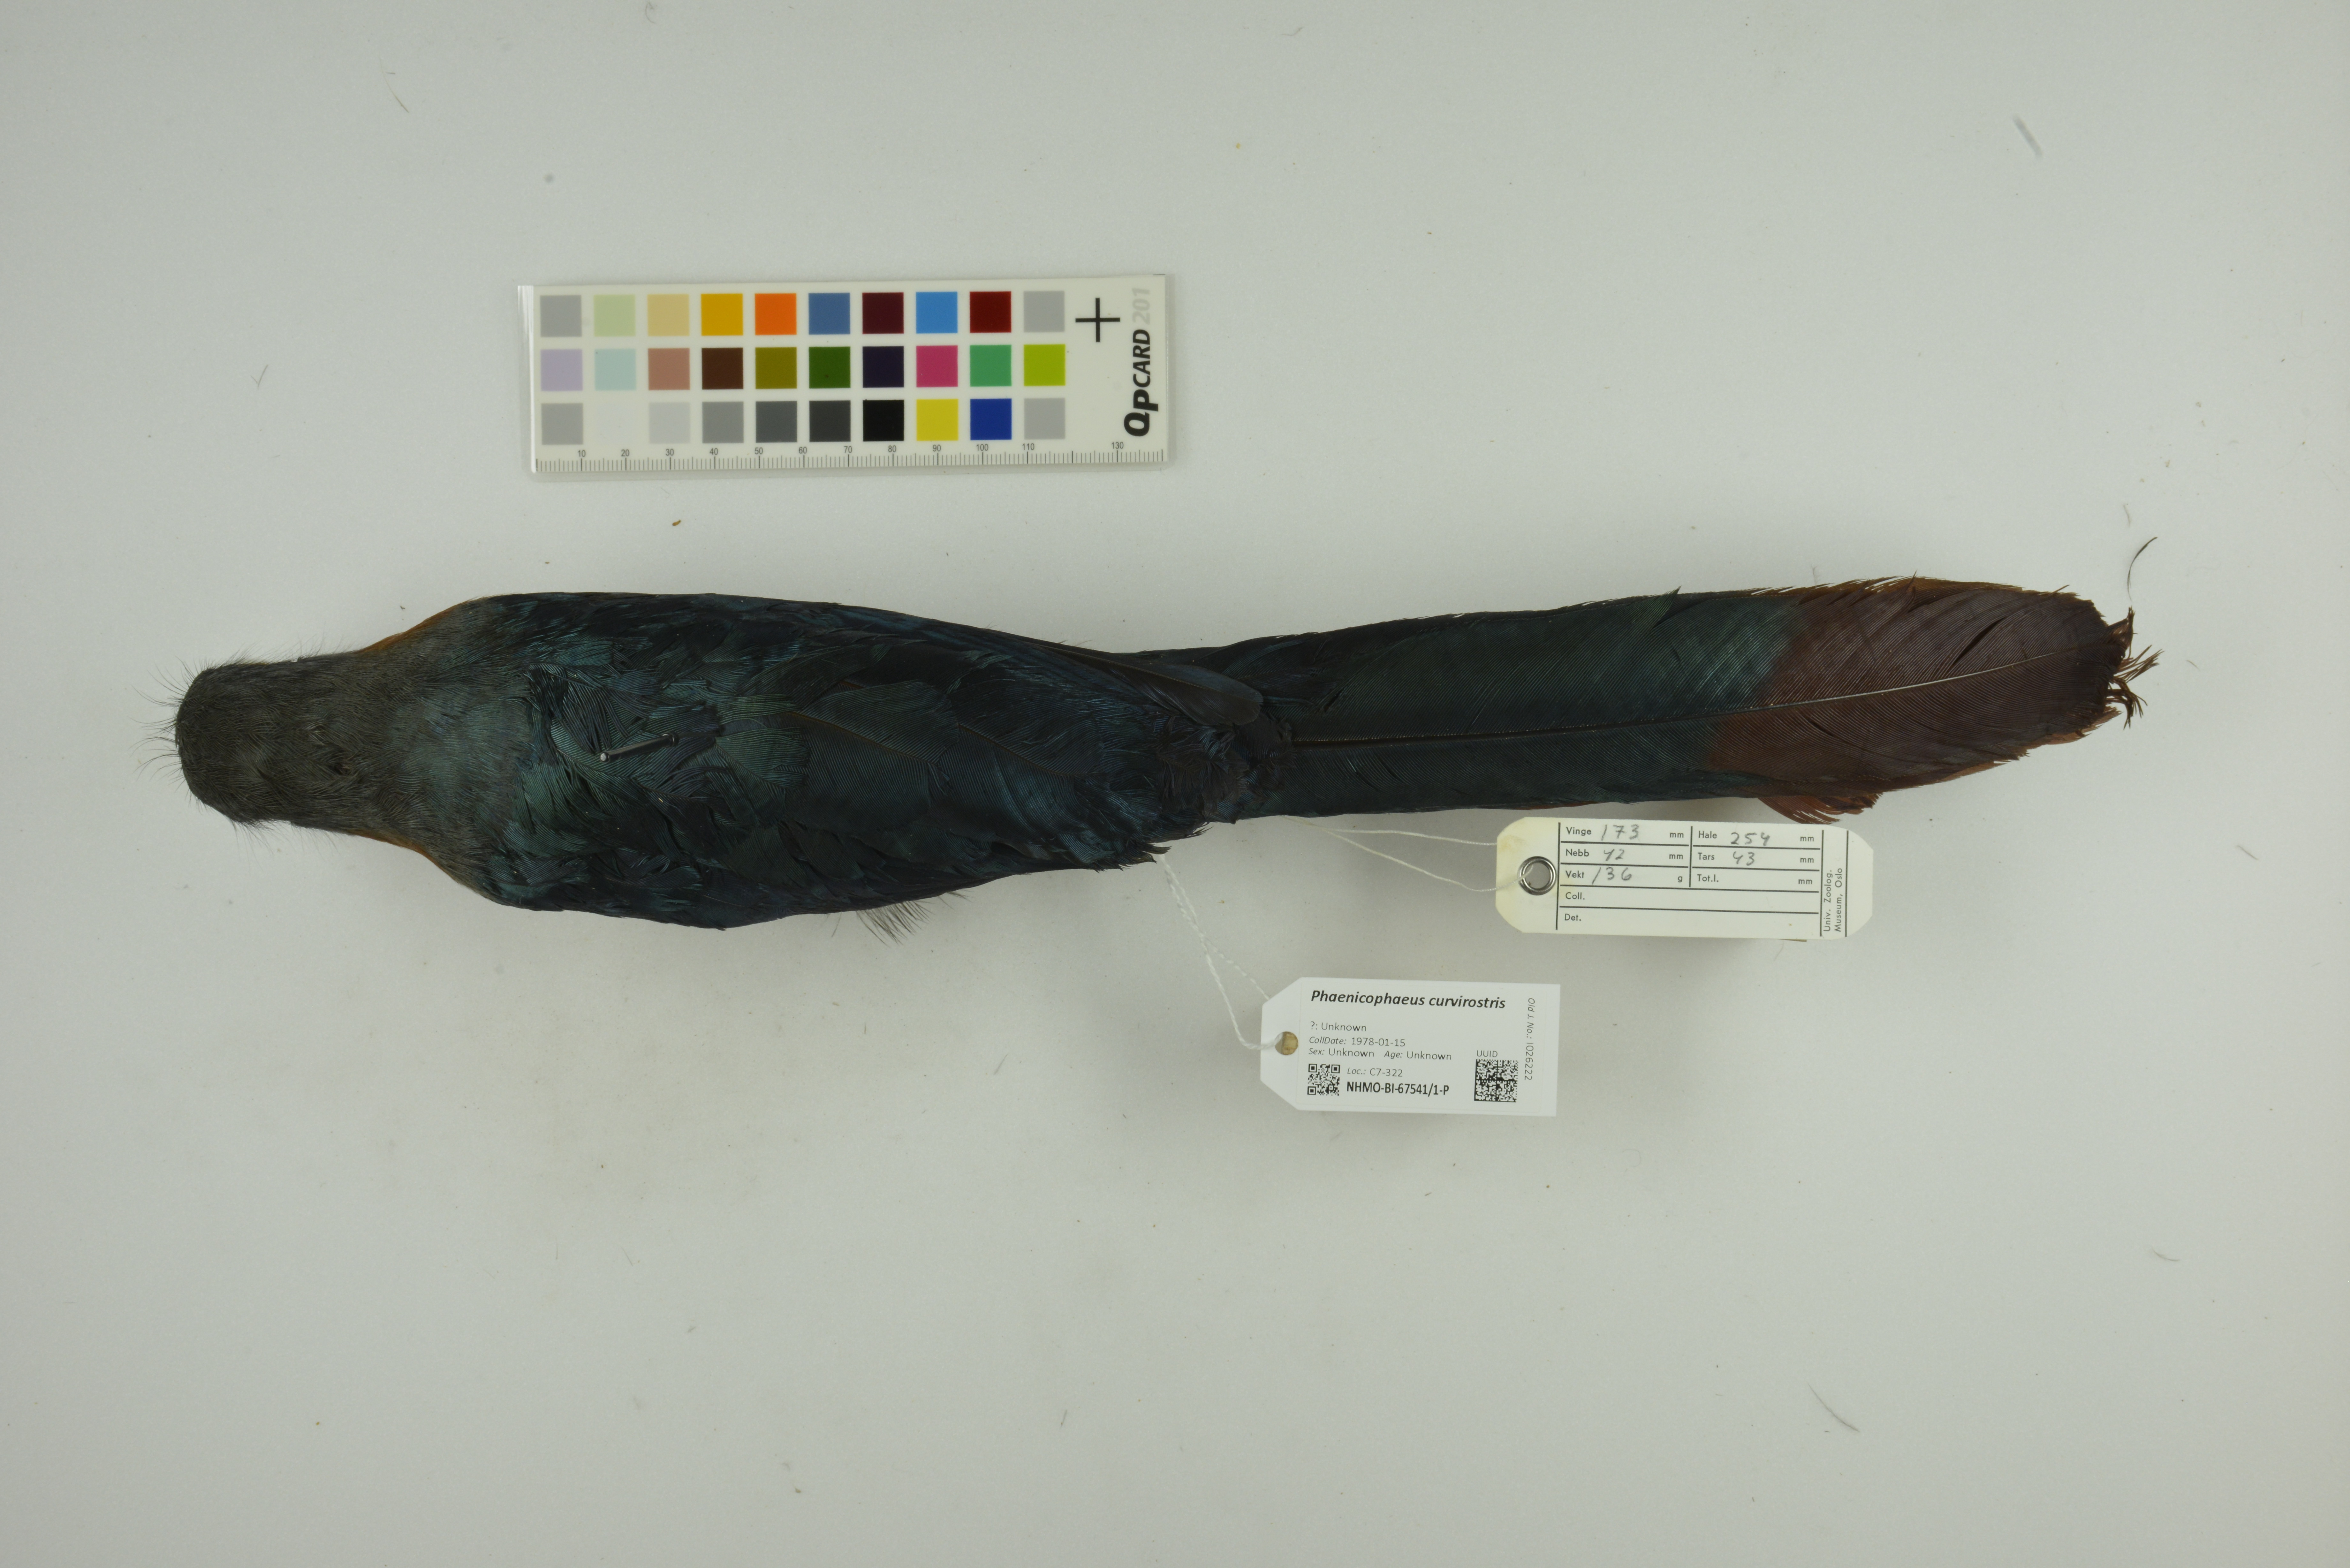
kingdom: Animalia
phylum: Chordata
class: Aves
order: Cuculiformes
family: Cuculidae
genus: Zanclostomus
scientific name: Zanclostomus curvirostris
